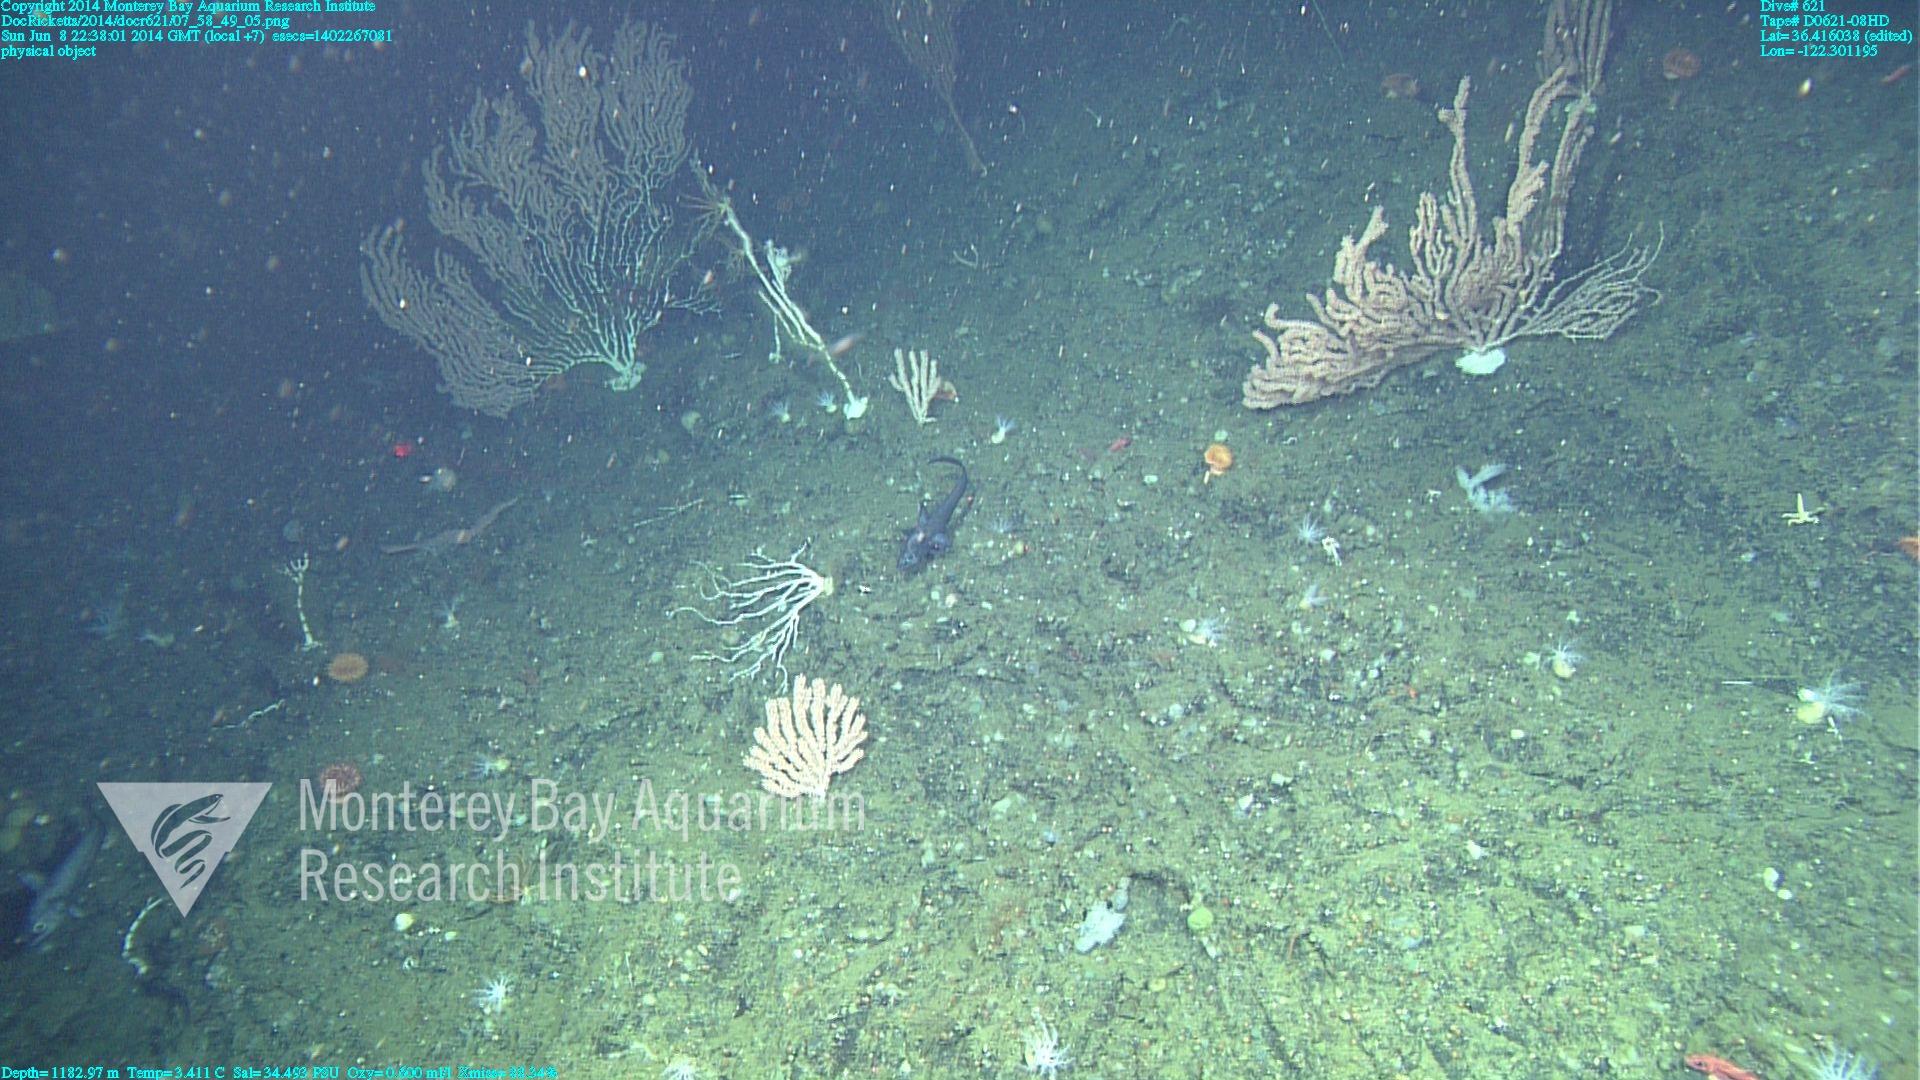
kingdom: Animalia
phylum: Cnidaria
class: Anthozoa
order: Scleralcyonacea
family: Keratoisididae
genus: Keratoisis
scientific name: Keratoisis
